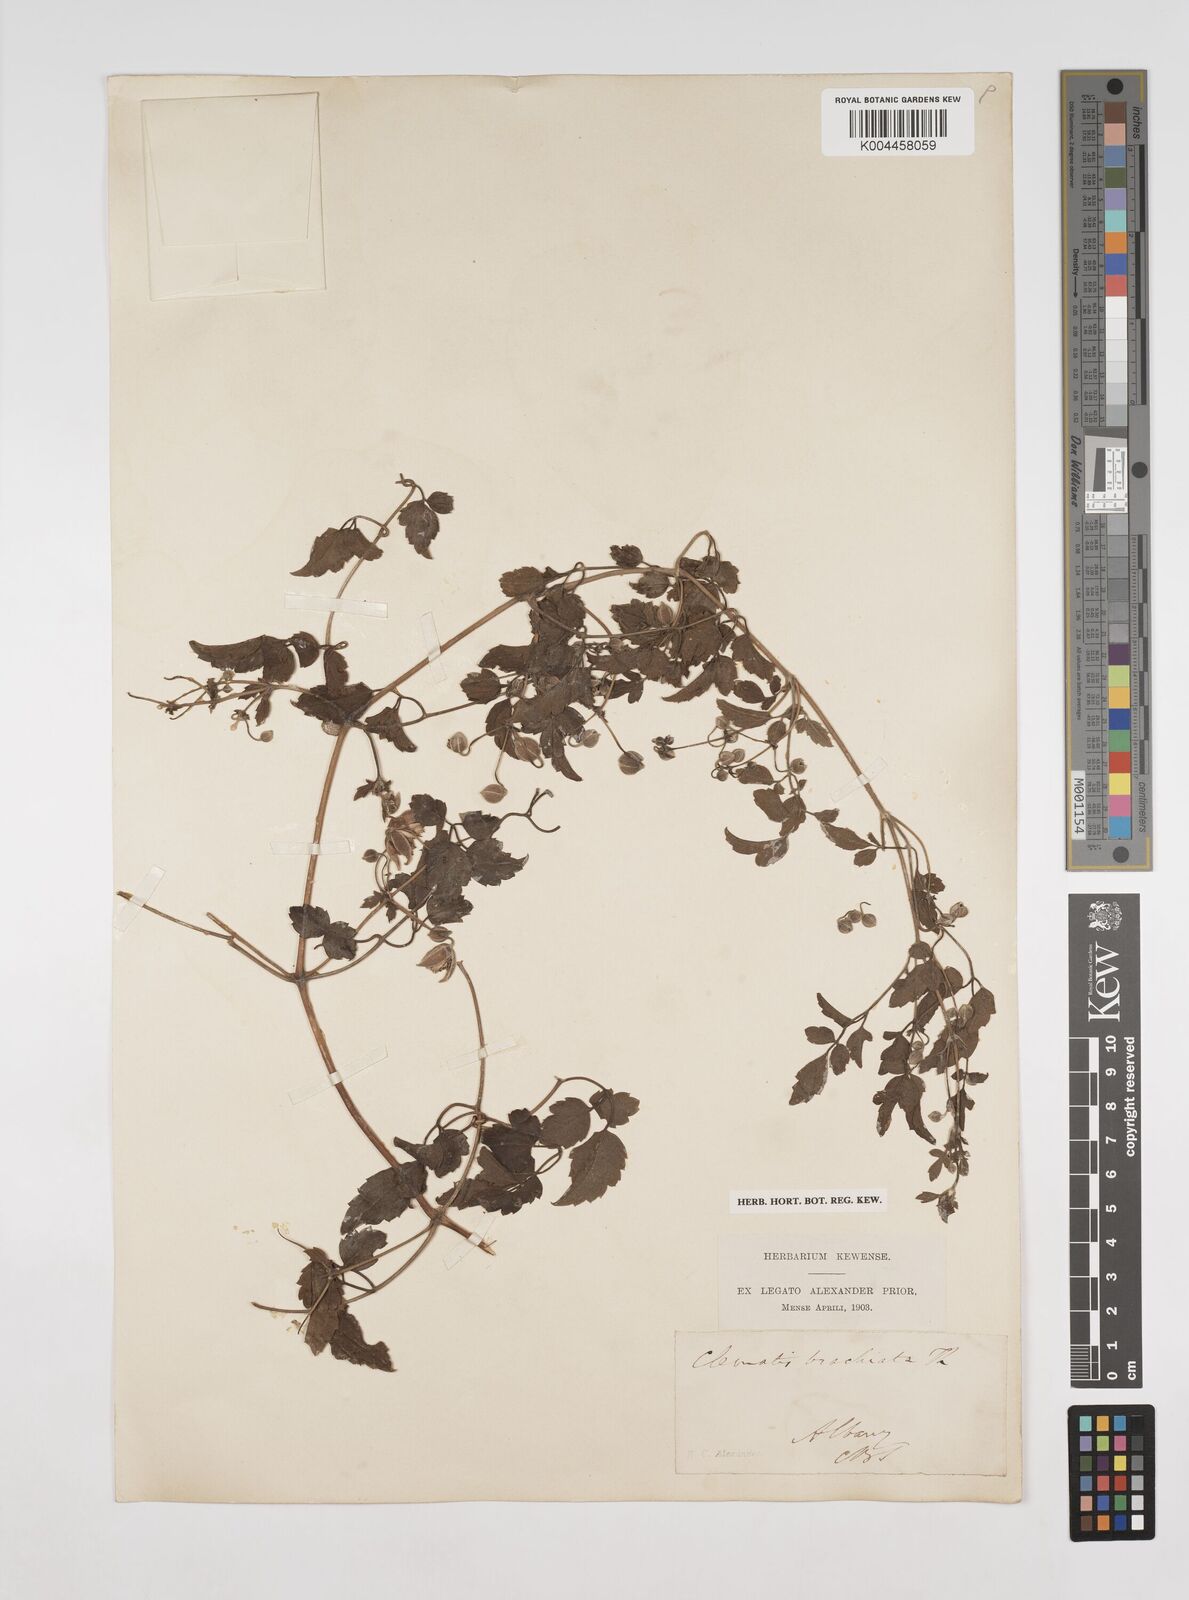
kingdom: Plantae
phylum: Tracheophyta
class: Magnoliopsida
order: Ranunculales
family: Ranunculaceae
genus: Clematis
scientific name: Clematis brachiata
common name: Traveler's-joy
